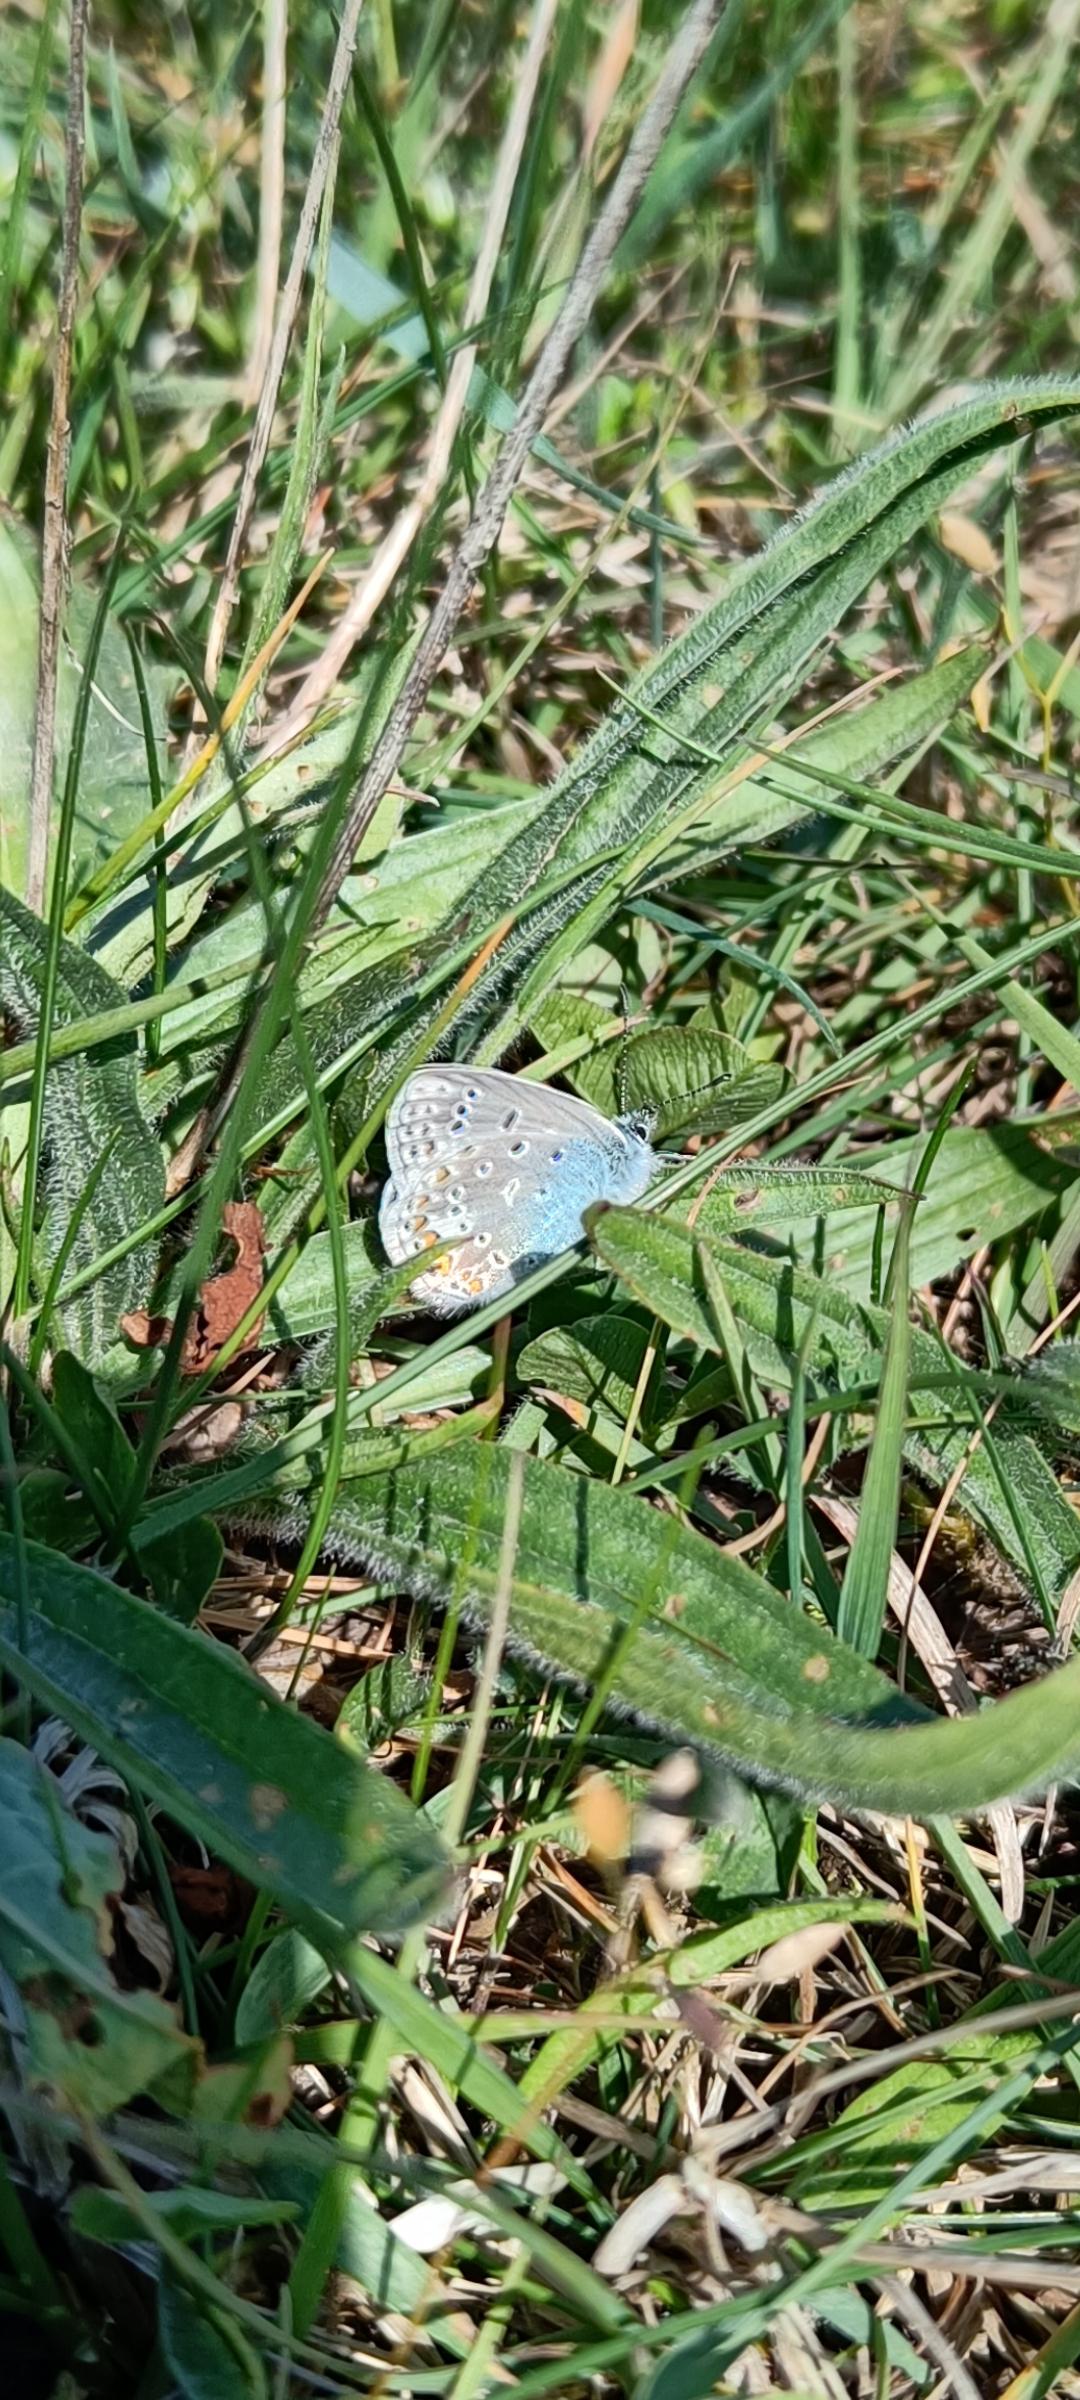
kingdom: Animalia
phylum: Arthropoda
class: Insecta
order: Lepidoptera
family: Lycaenidae
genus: Polyommatus
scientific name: Polyommatus icarus
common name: Almindelig blåfugl
